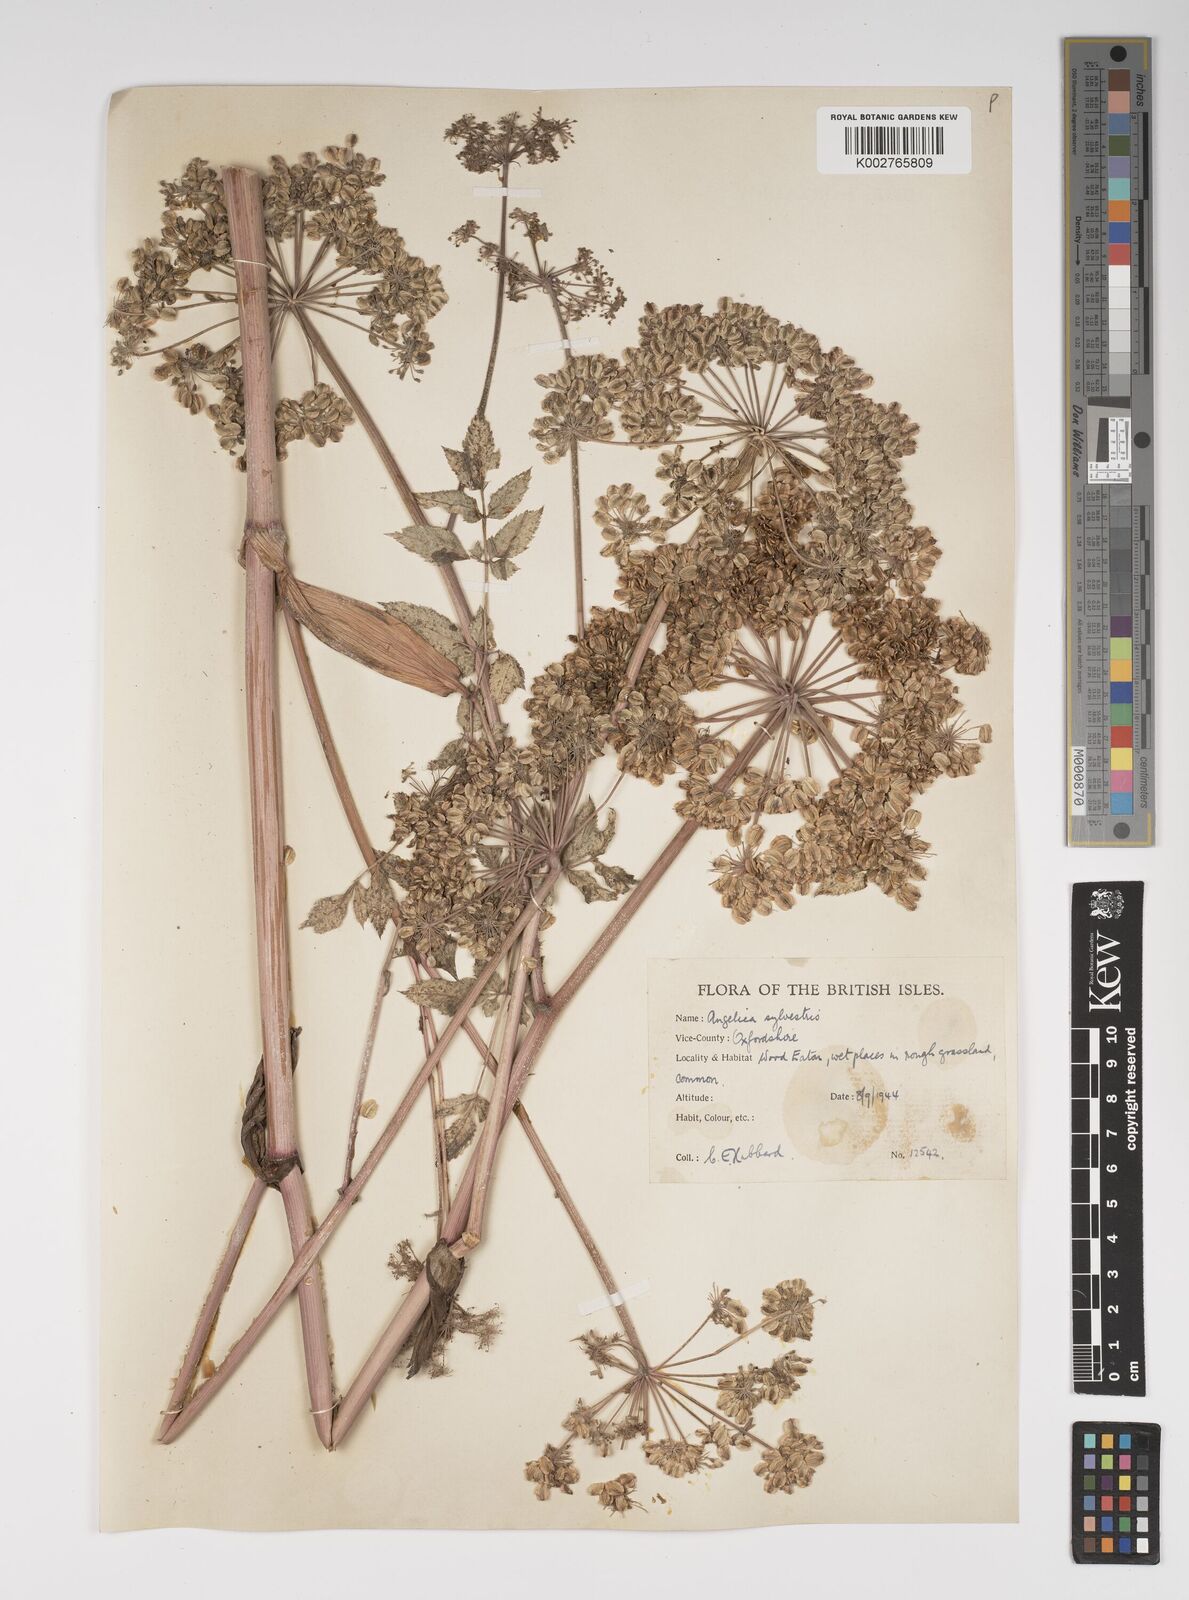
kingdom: Plantae
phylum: Tracheophyta
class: Magnoliopsida
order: Apiales
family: Apiaceae
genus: Angelica
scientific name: Angelica sylvestris
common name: Wild angelica
